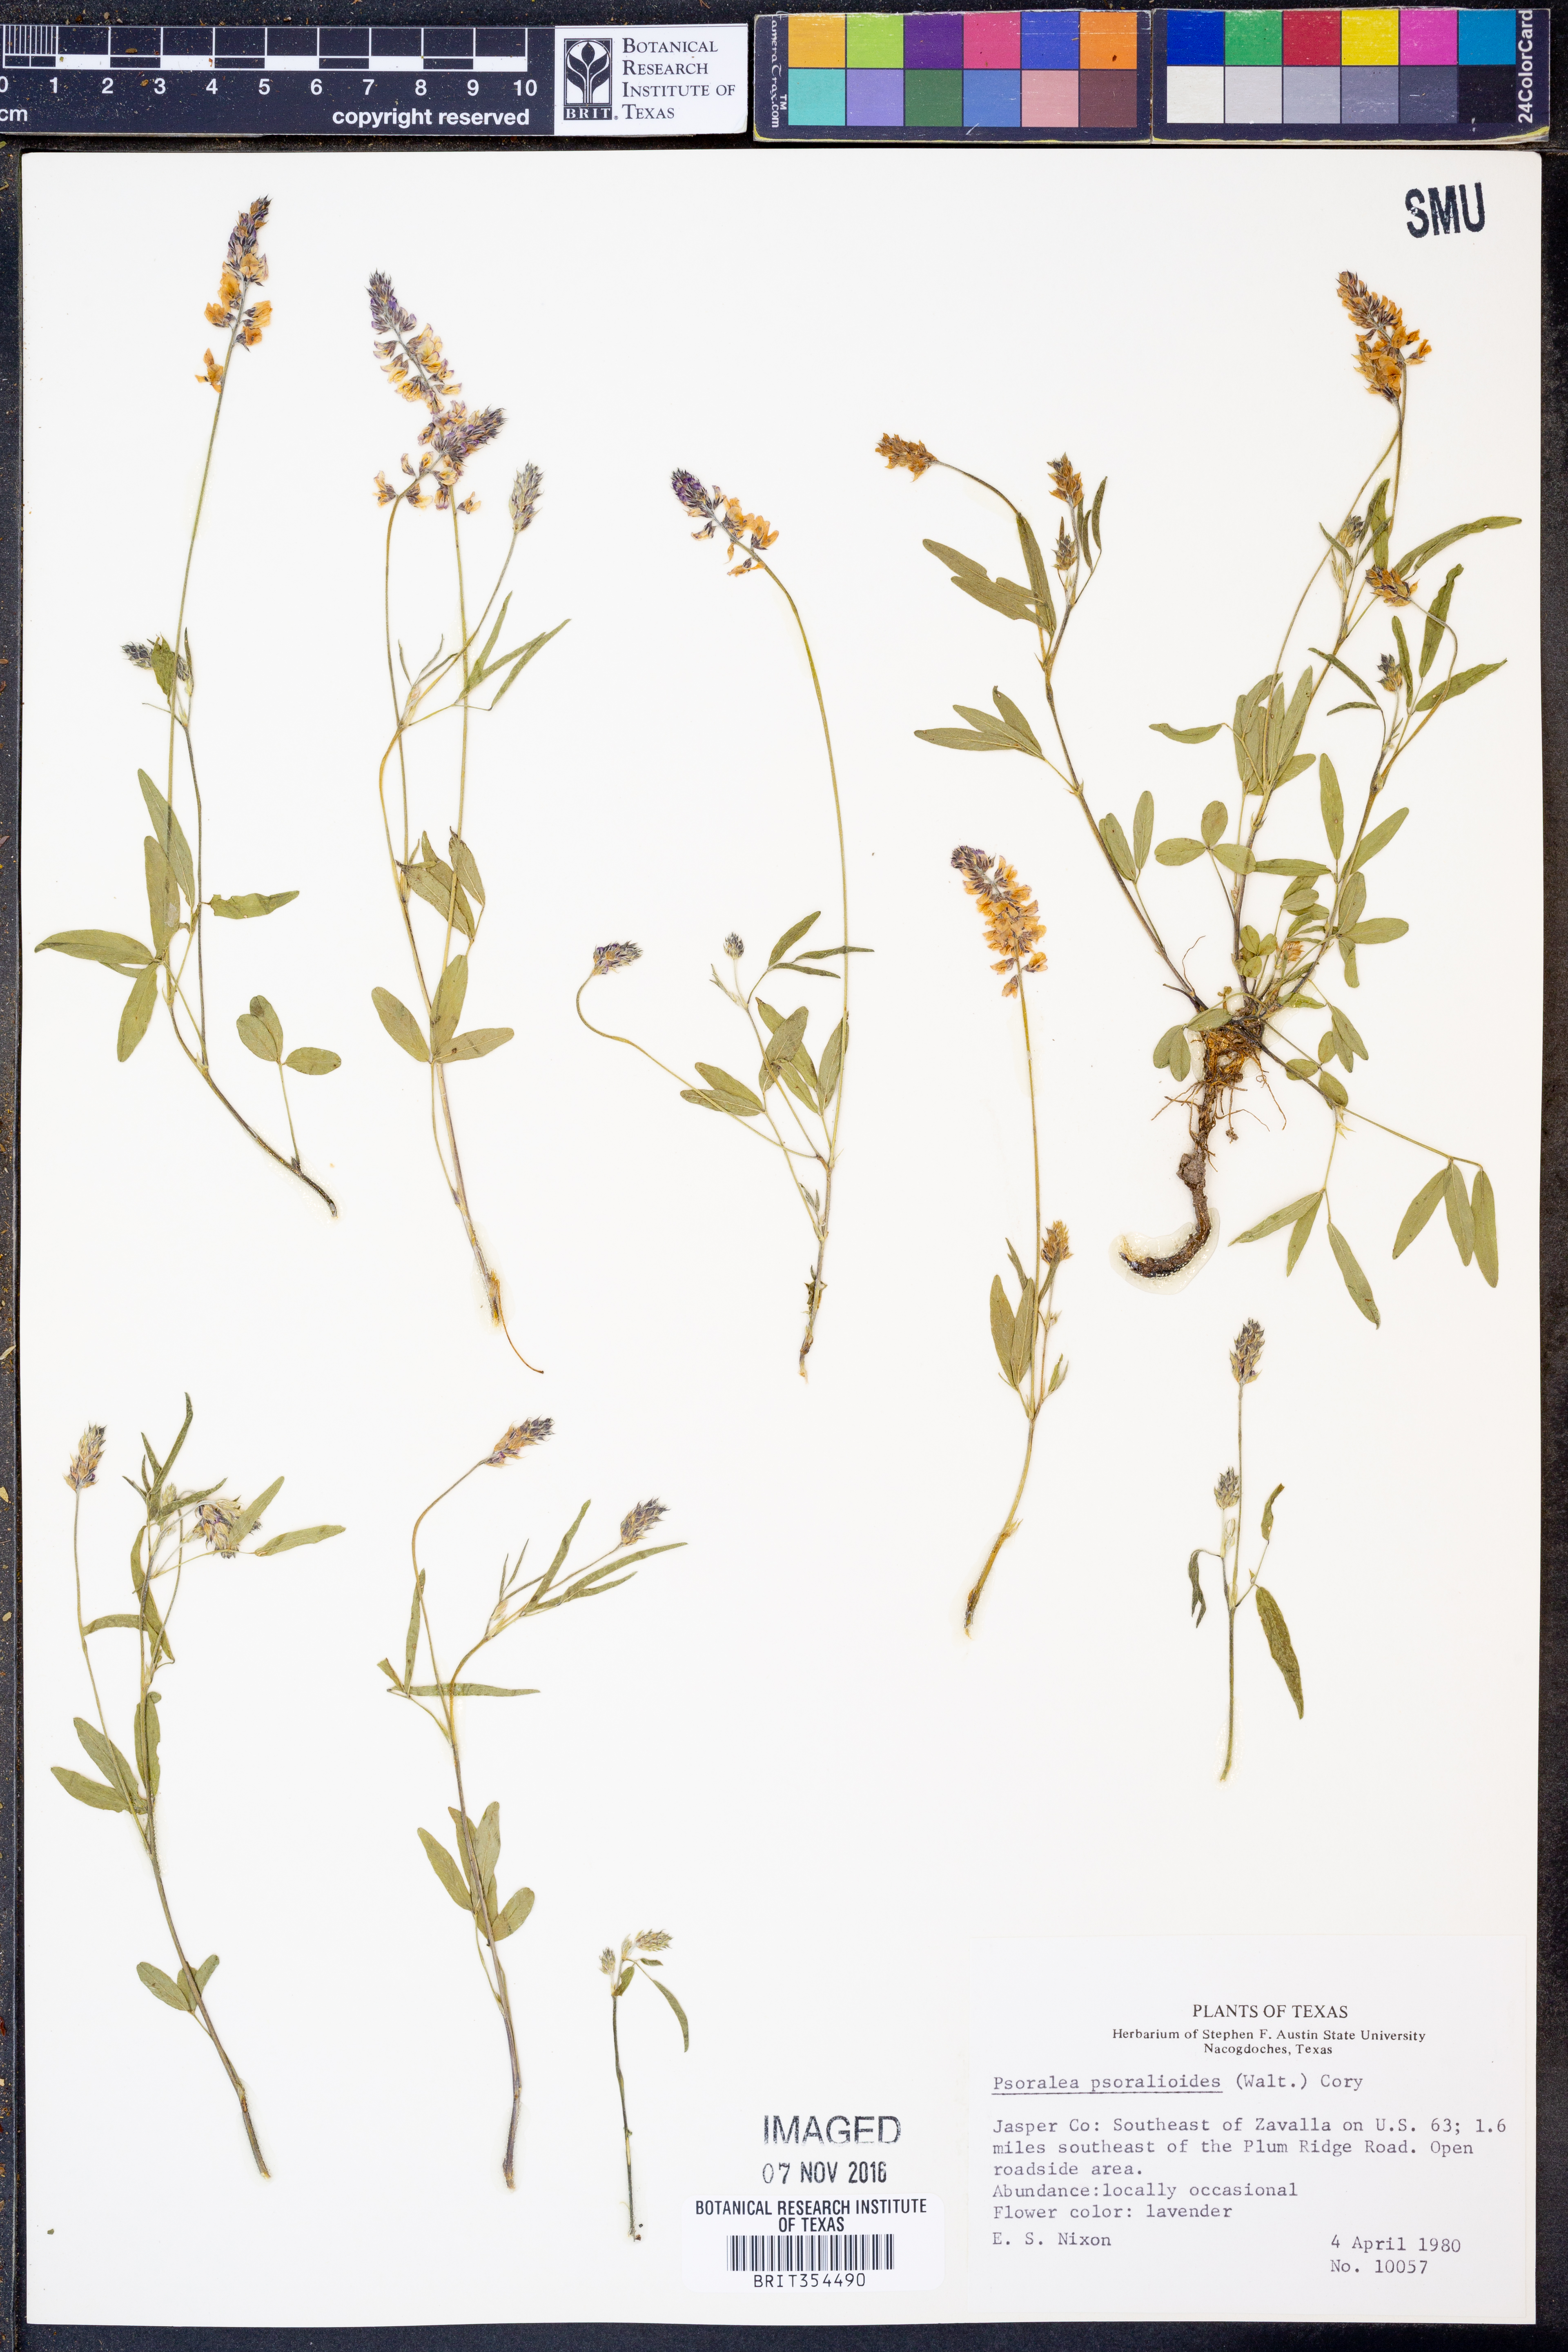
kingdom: Plantae
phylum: Tracheophyta
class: Magnoliopsida
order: Fabales
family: Fabaceae
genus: Orbexilum
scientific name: Orbexilum psoralioides
